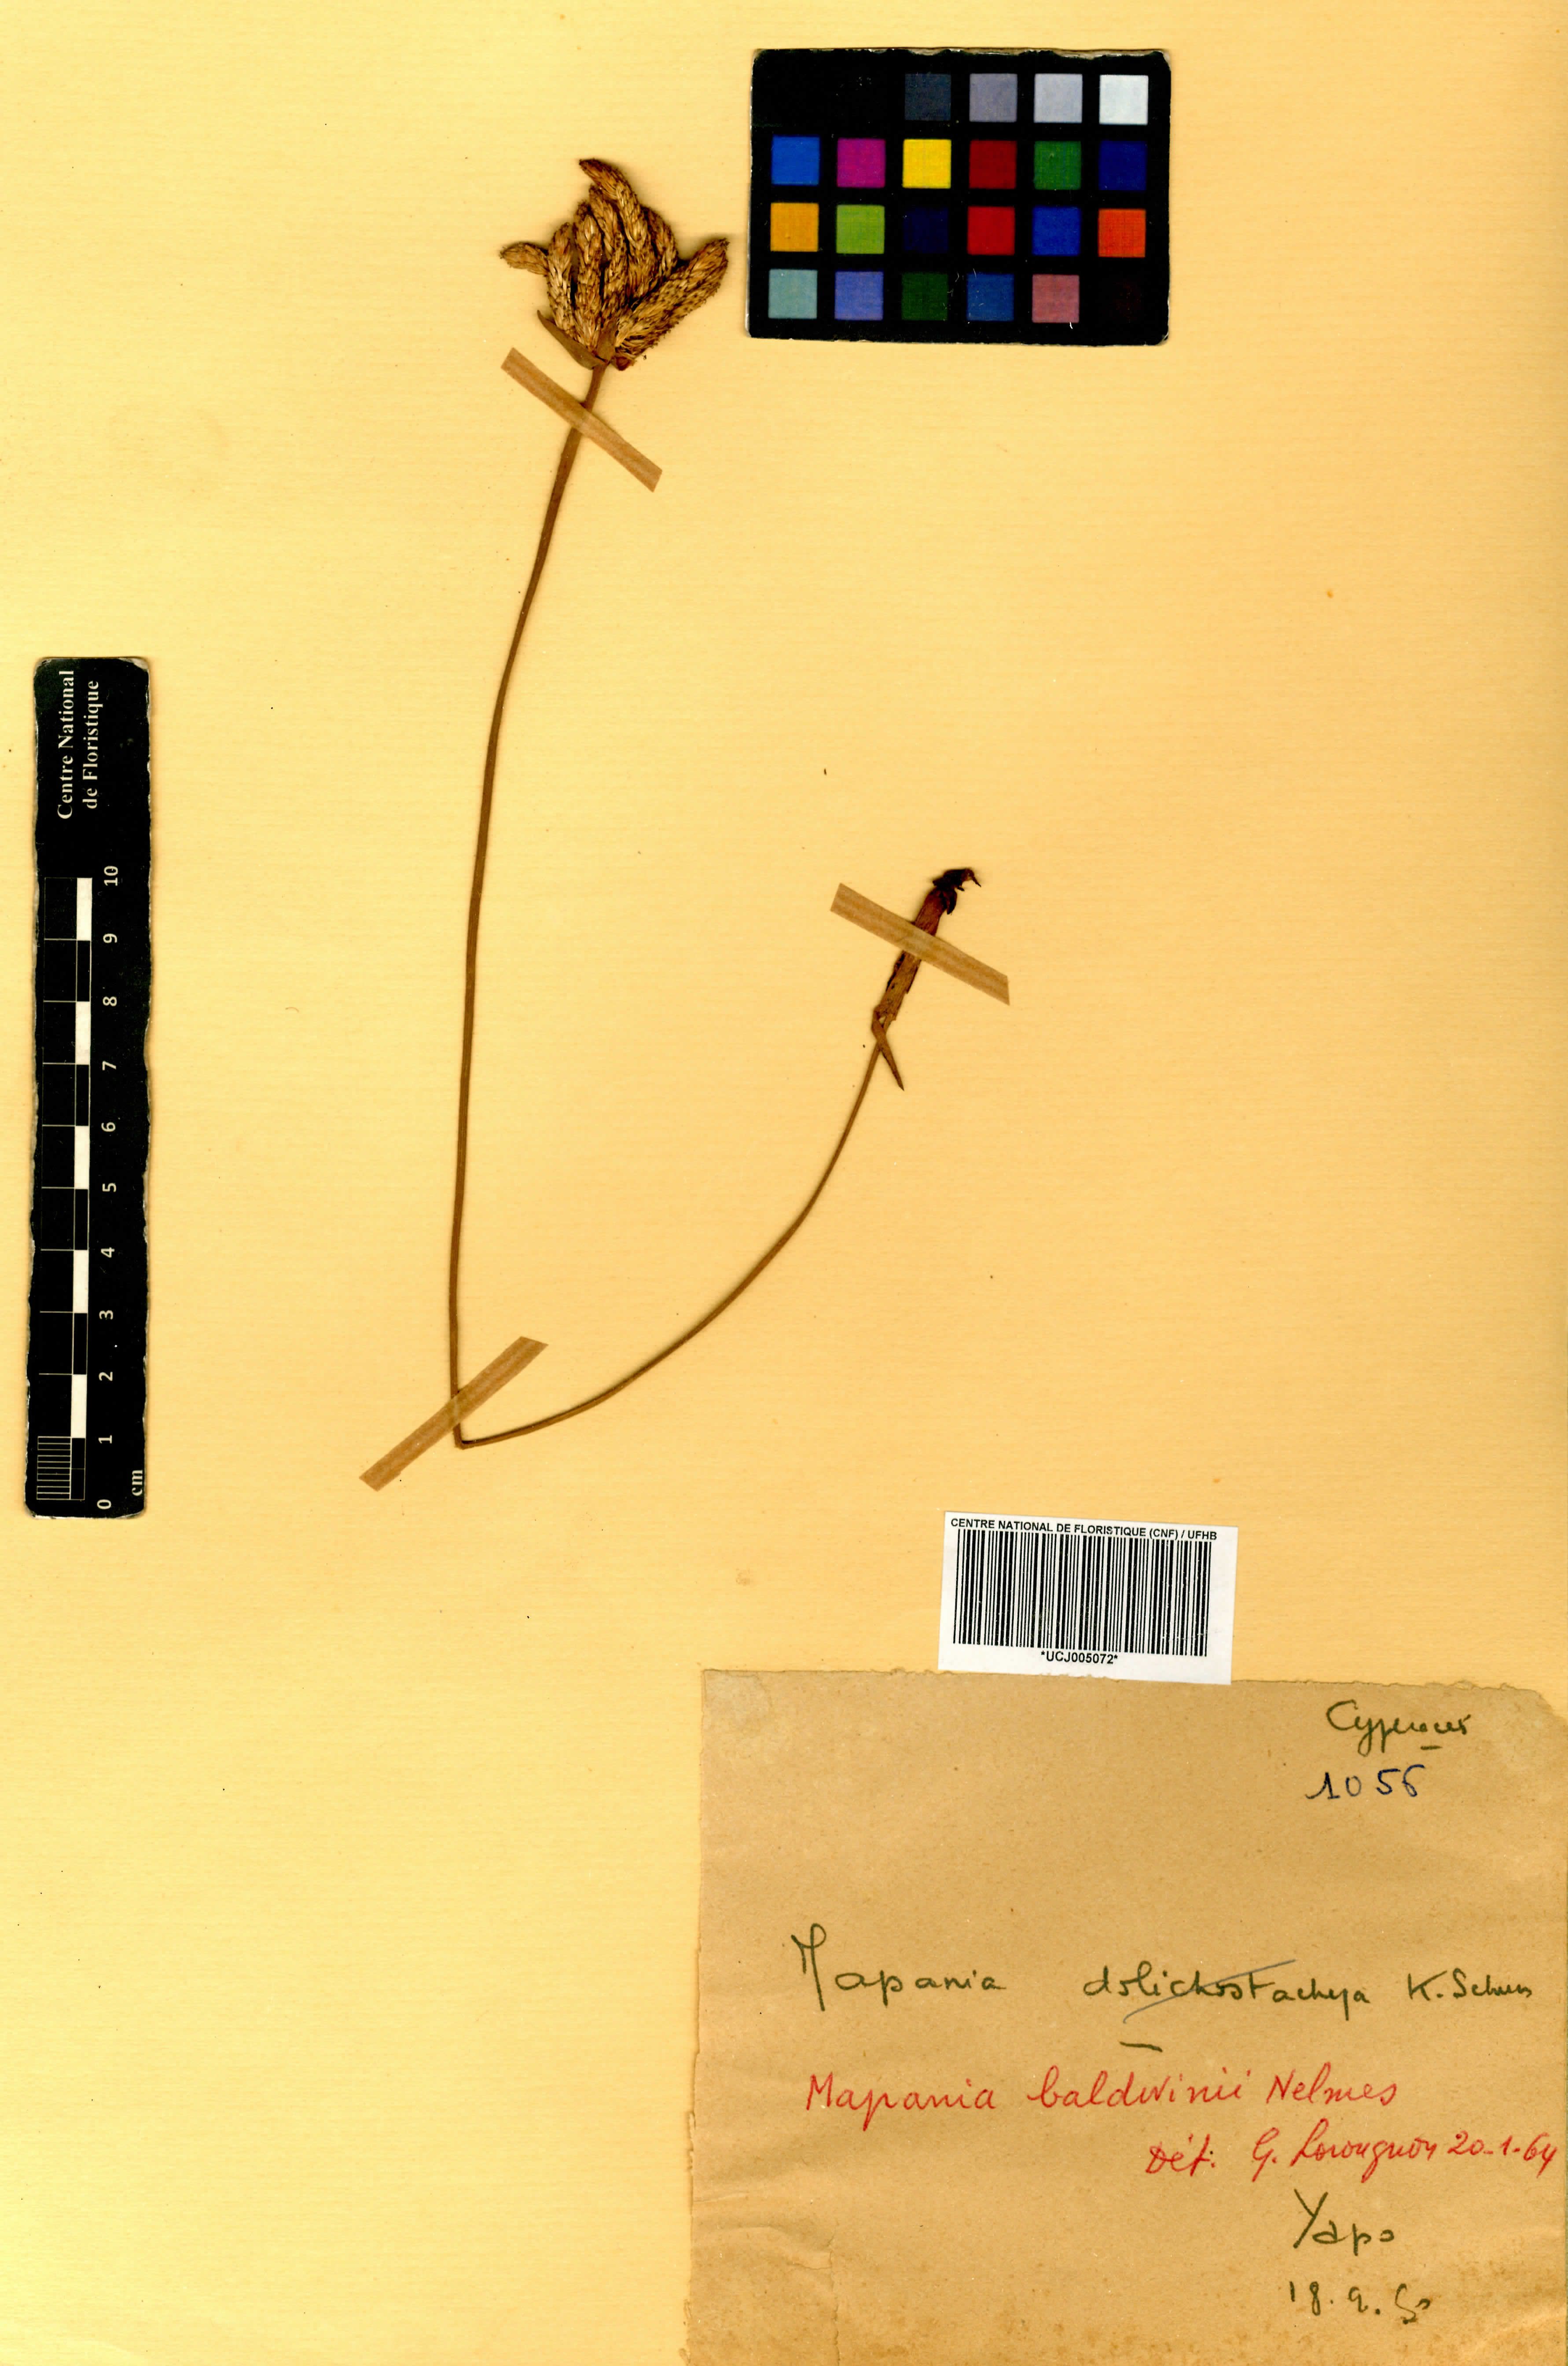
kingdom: Plantae
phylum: Tracheophyta
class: Liliopsida
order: Poales
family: Cyperaceae
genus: Mapania
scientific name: Mapania baldwinii
